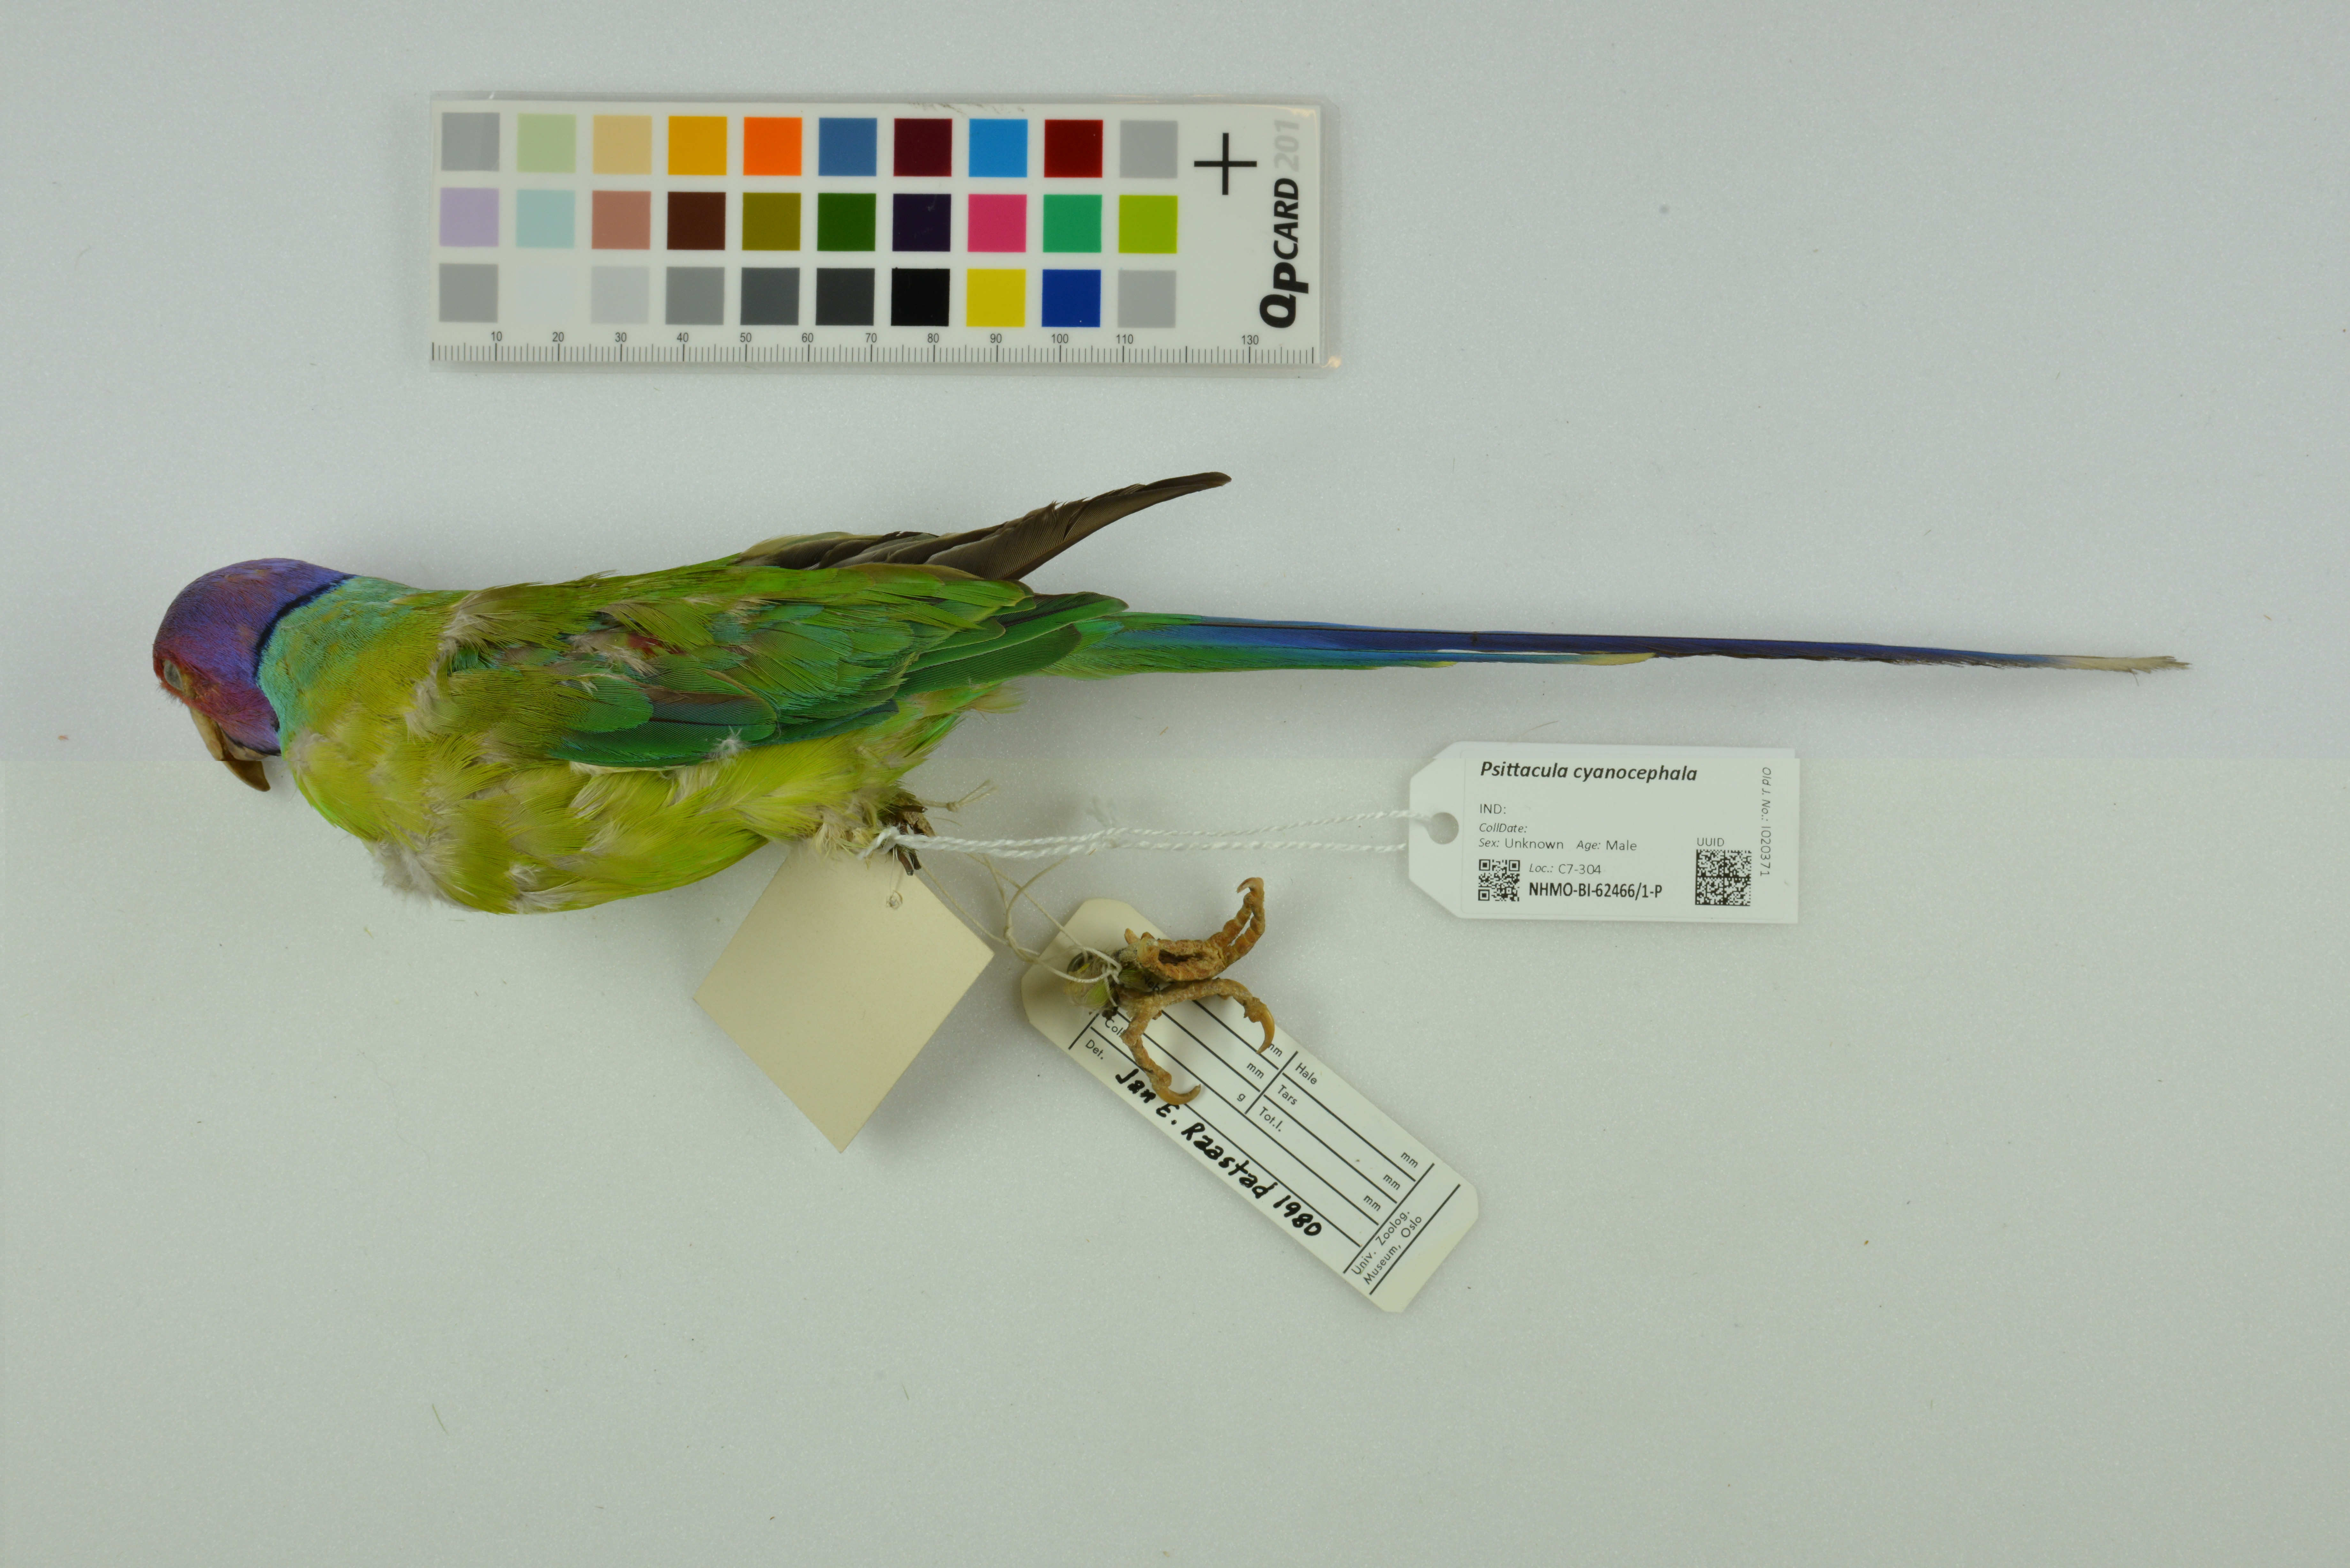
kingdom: Animalia
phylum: Chordata
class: Aves
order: Psittaciformes
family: Psittacidae
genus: Psittacula
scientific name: Psittacula cyanocephala
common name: Plum-headed parakeet
